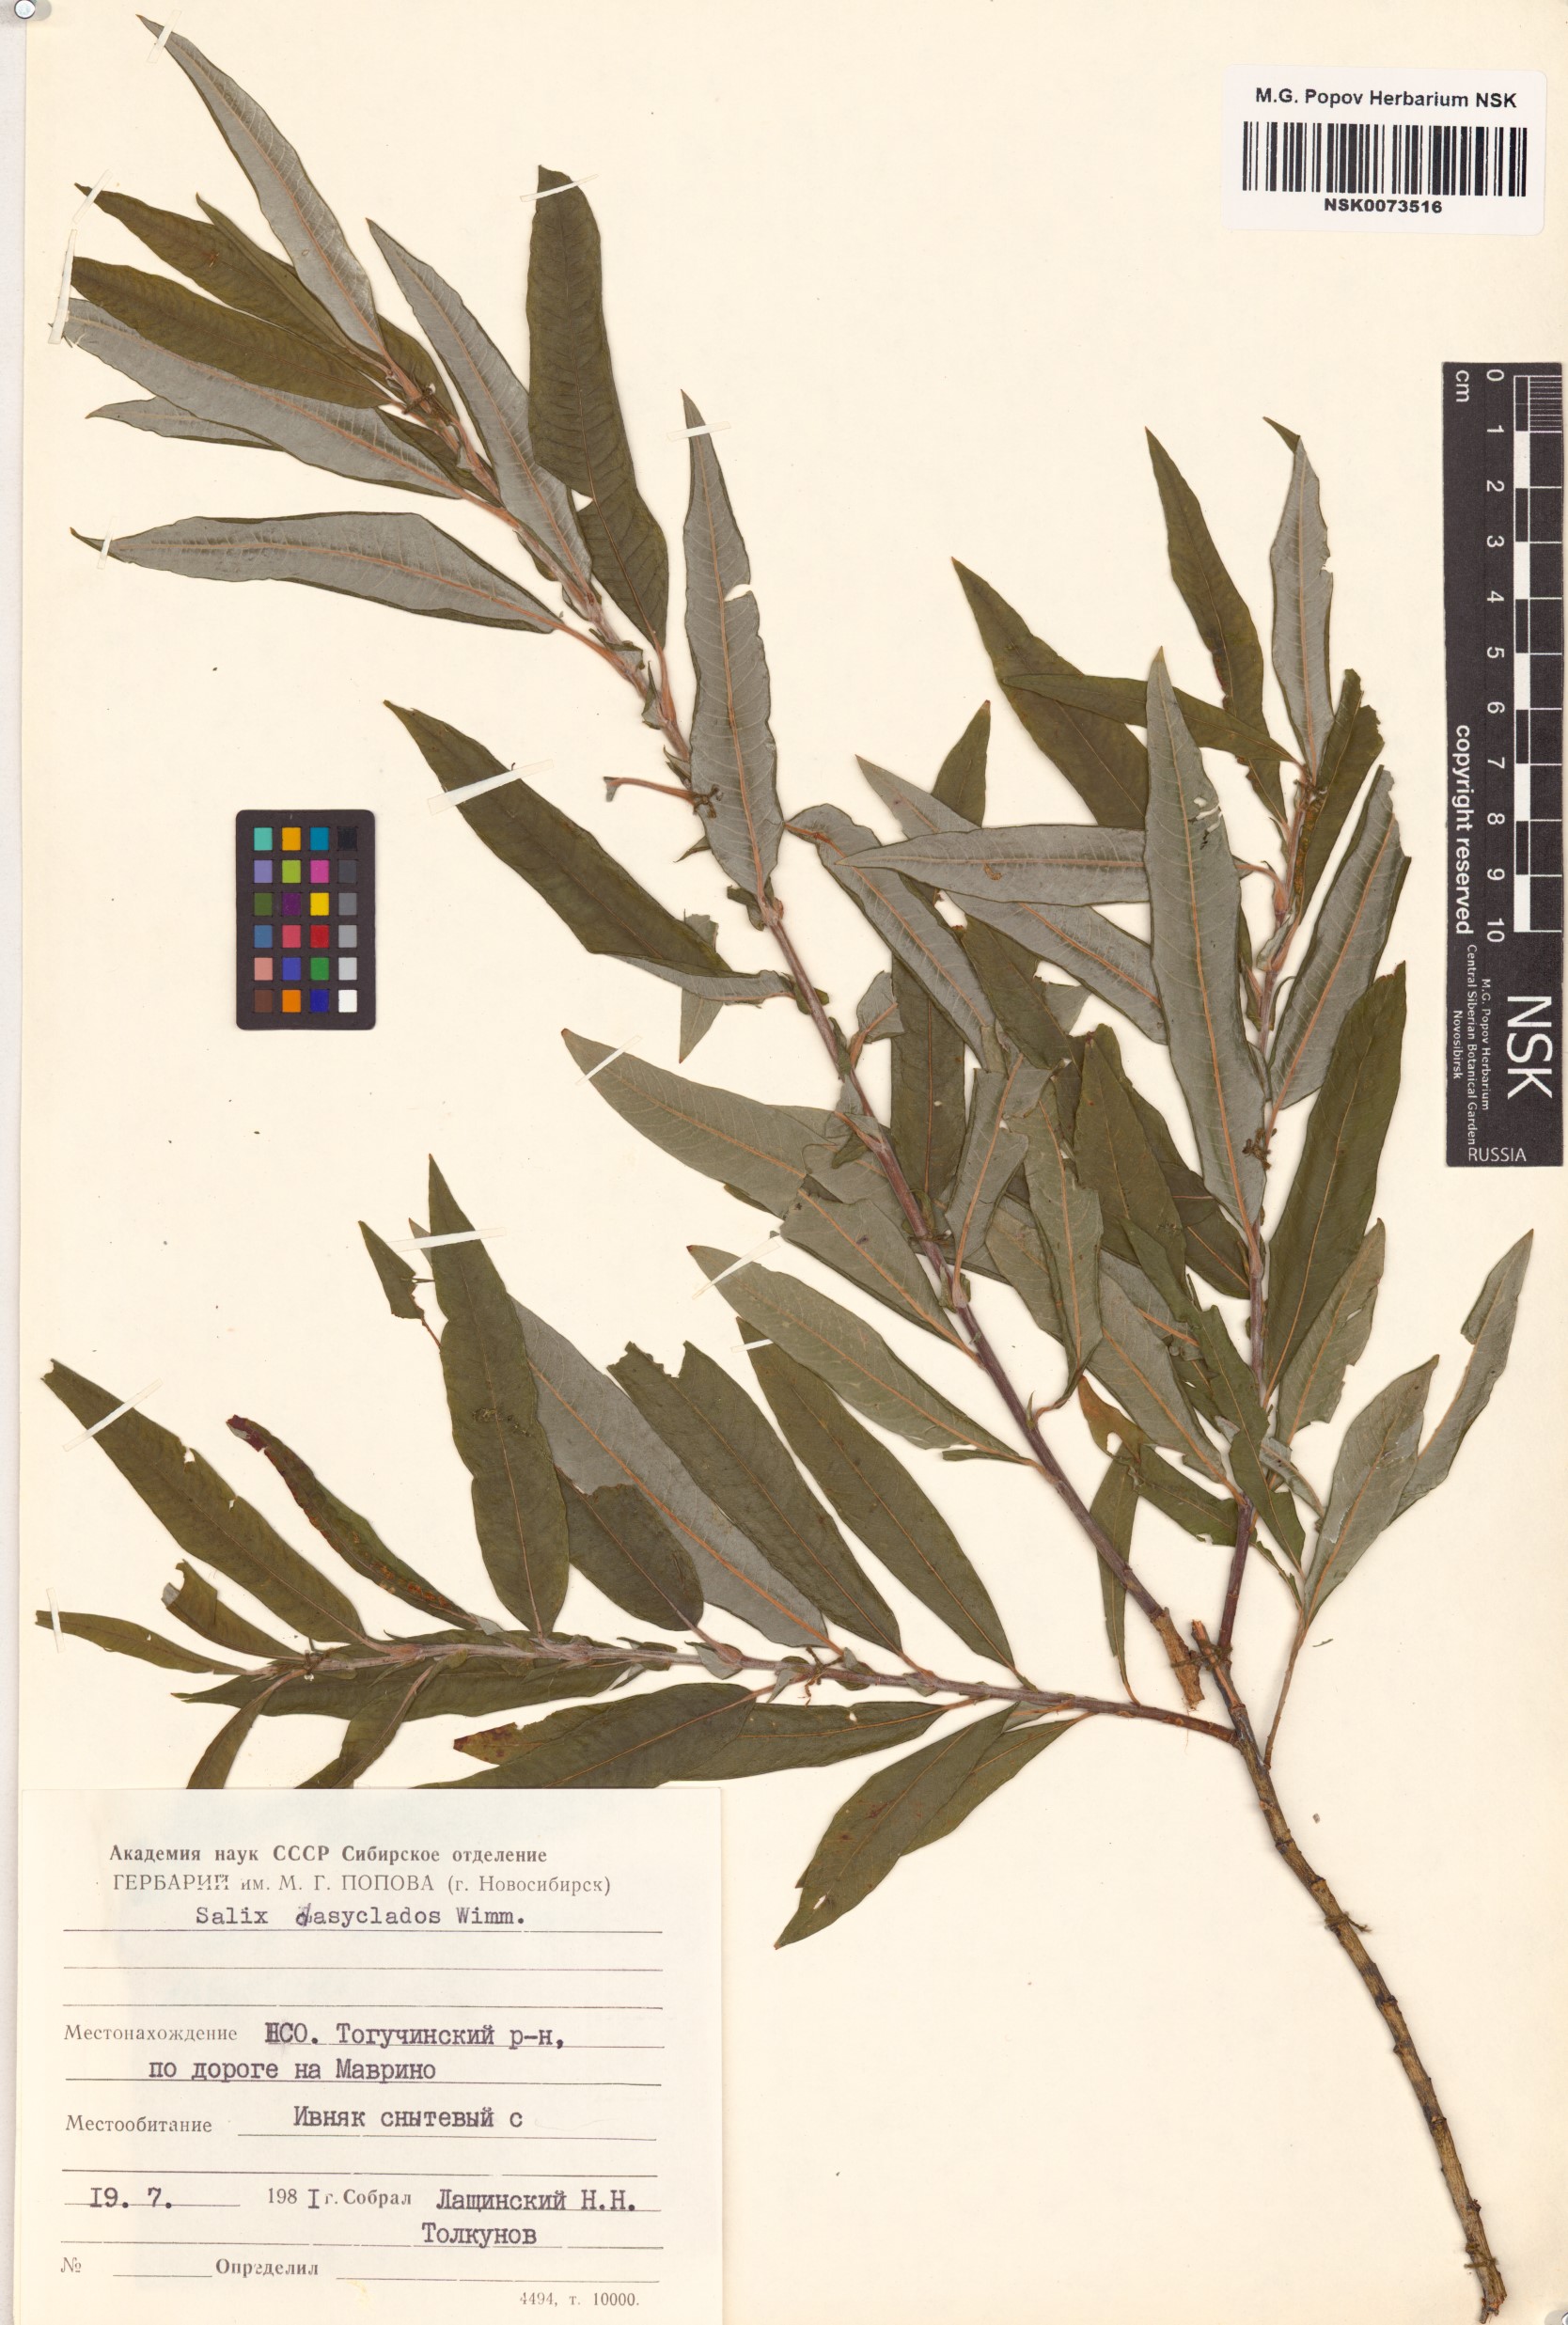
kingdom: Plantae
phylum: Tracheophyta
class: Magnoliopsida
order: Malpighiales
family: Salicaceae
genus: Salix
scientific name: Salix gmelinii
